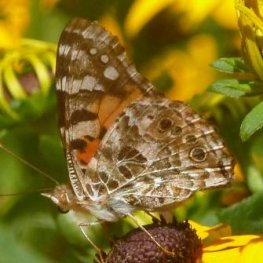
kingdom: Animalia
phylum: Arthropoda
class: Insecta
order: Lepidoptera
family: Nymphalidae
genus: Vanessa
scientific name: Vanessa cardui
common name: Painted Lady
